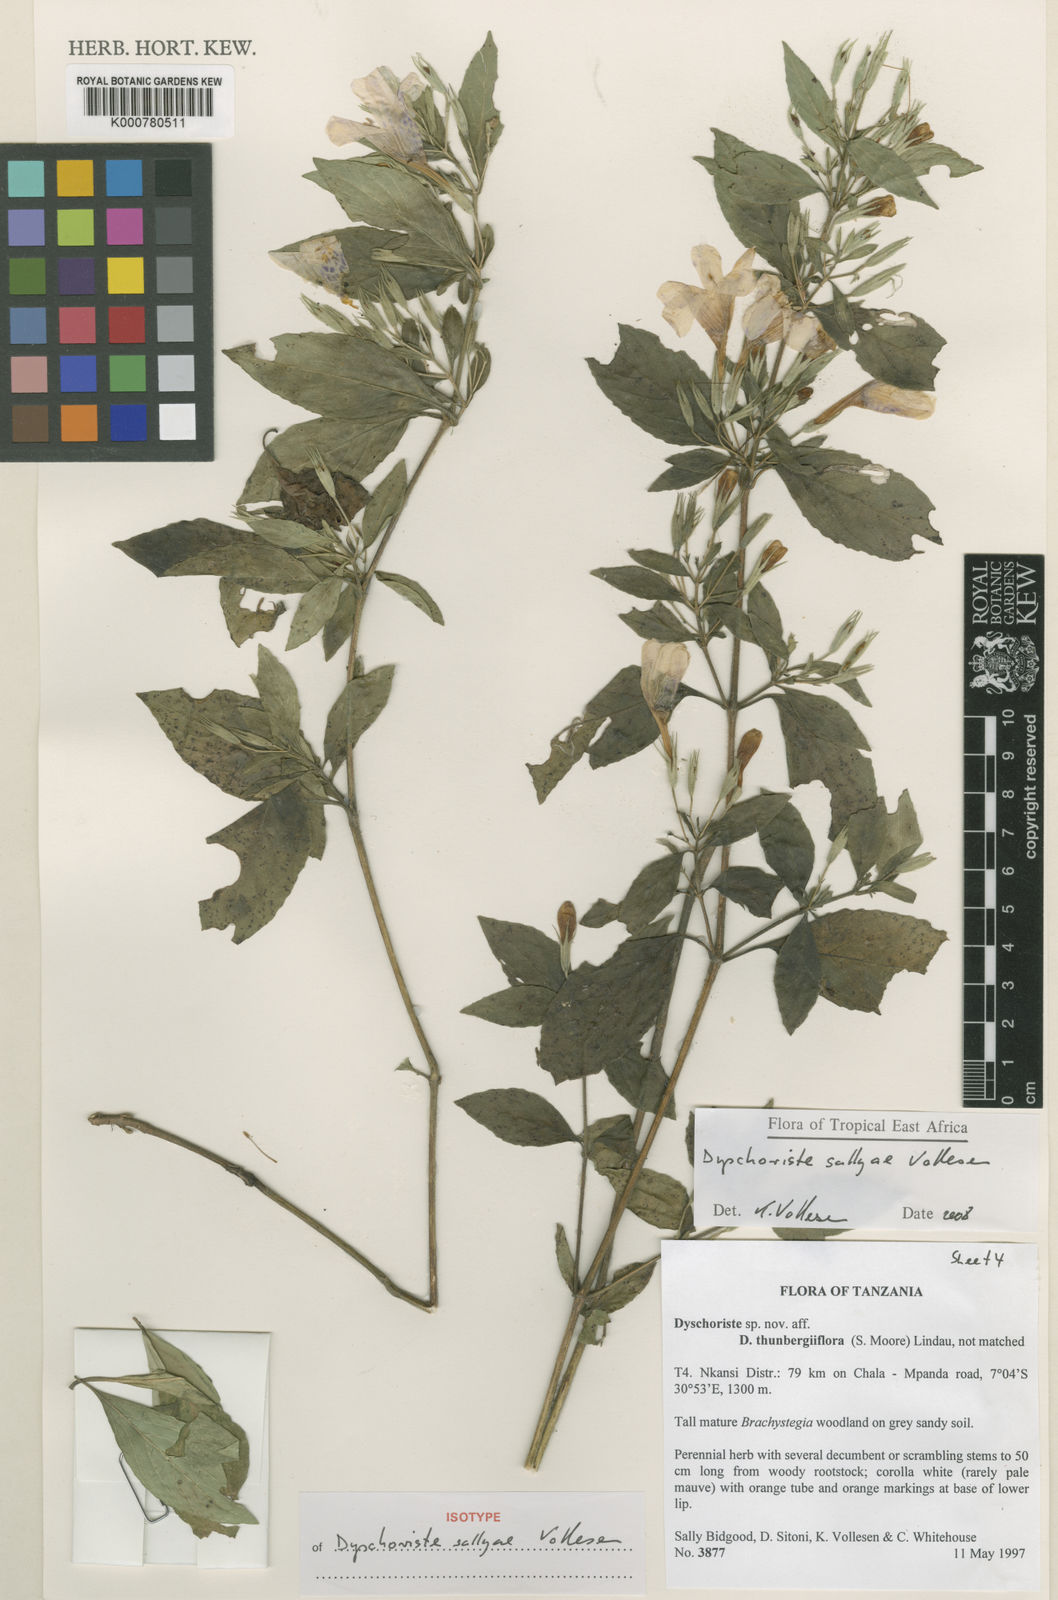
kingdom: Plantae
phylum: Tracheophyta
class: Magnoliopsida
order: Lamiales
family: Acanthaceae
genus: Dyschoriste
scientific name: Dyschoriste sallyae
